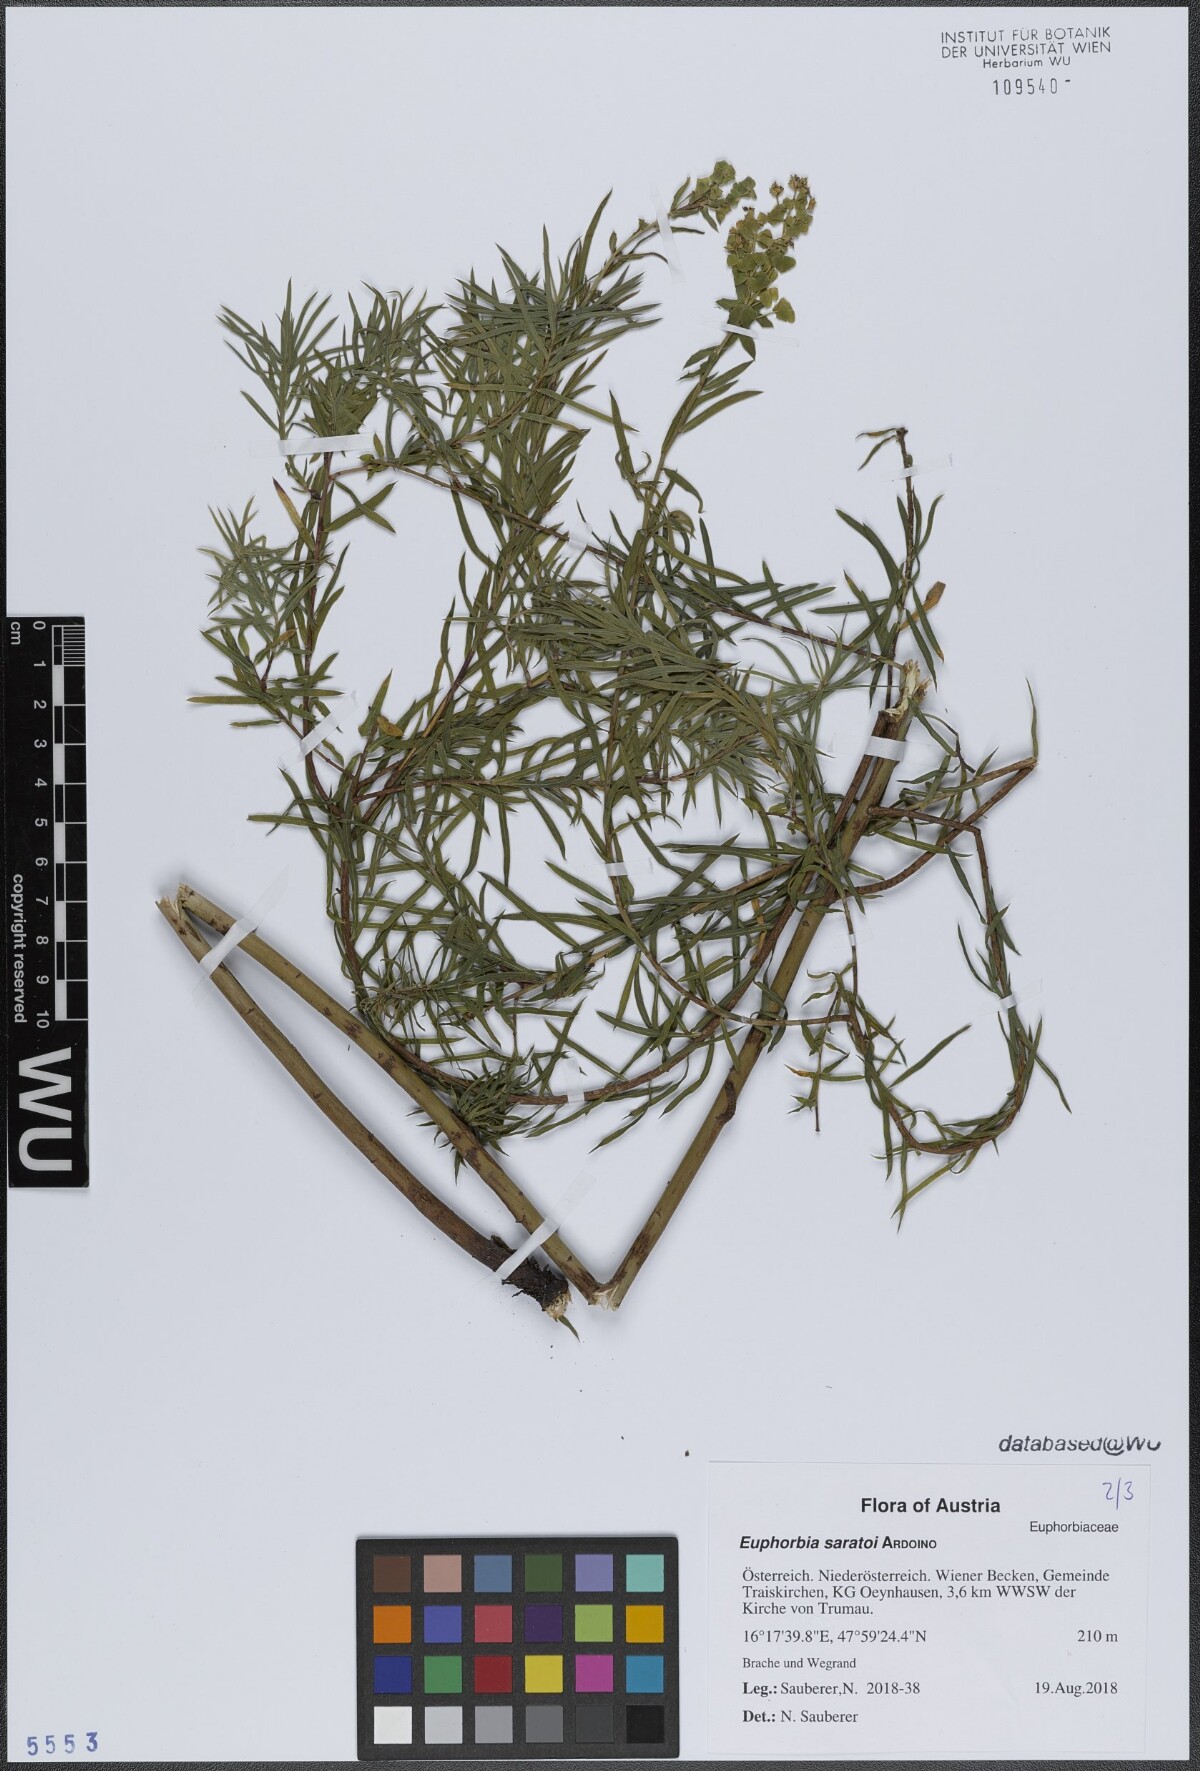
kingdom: Plantae
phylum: Tracheophyta
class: Magnoliopsida
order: Malpighiales
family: Euphorbiaceae
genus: Euphorbia
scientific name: Euphorbia saratoi
